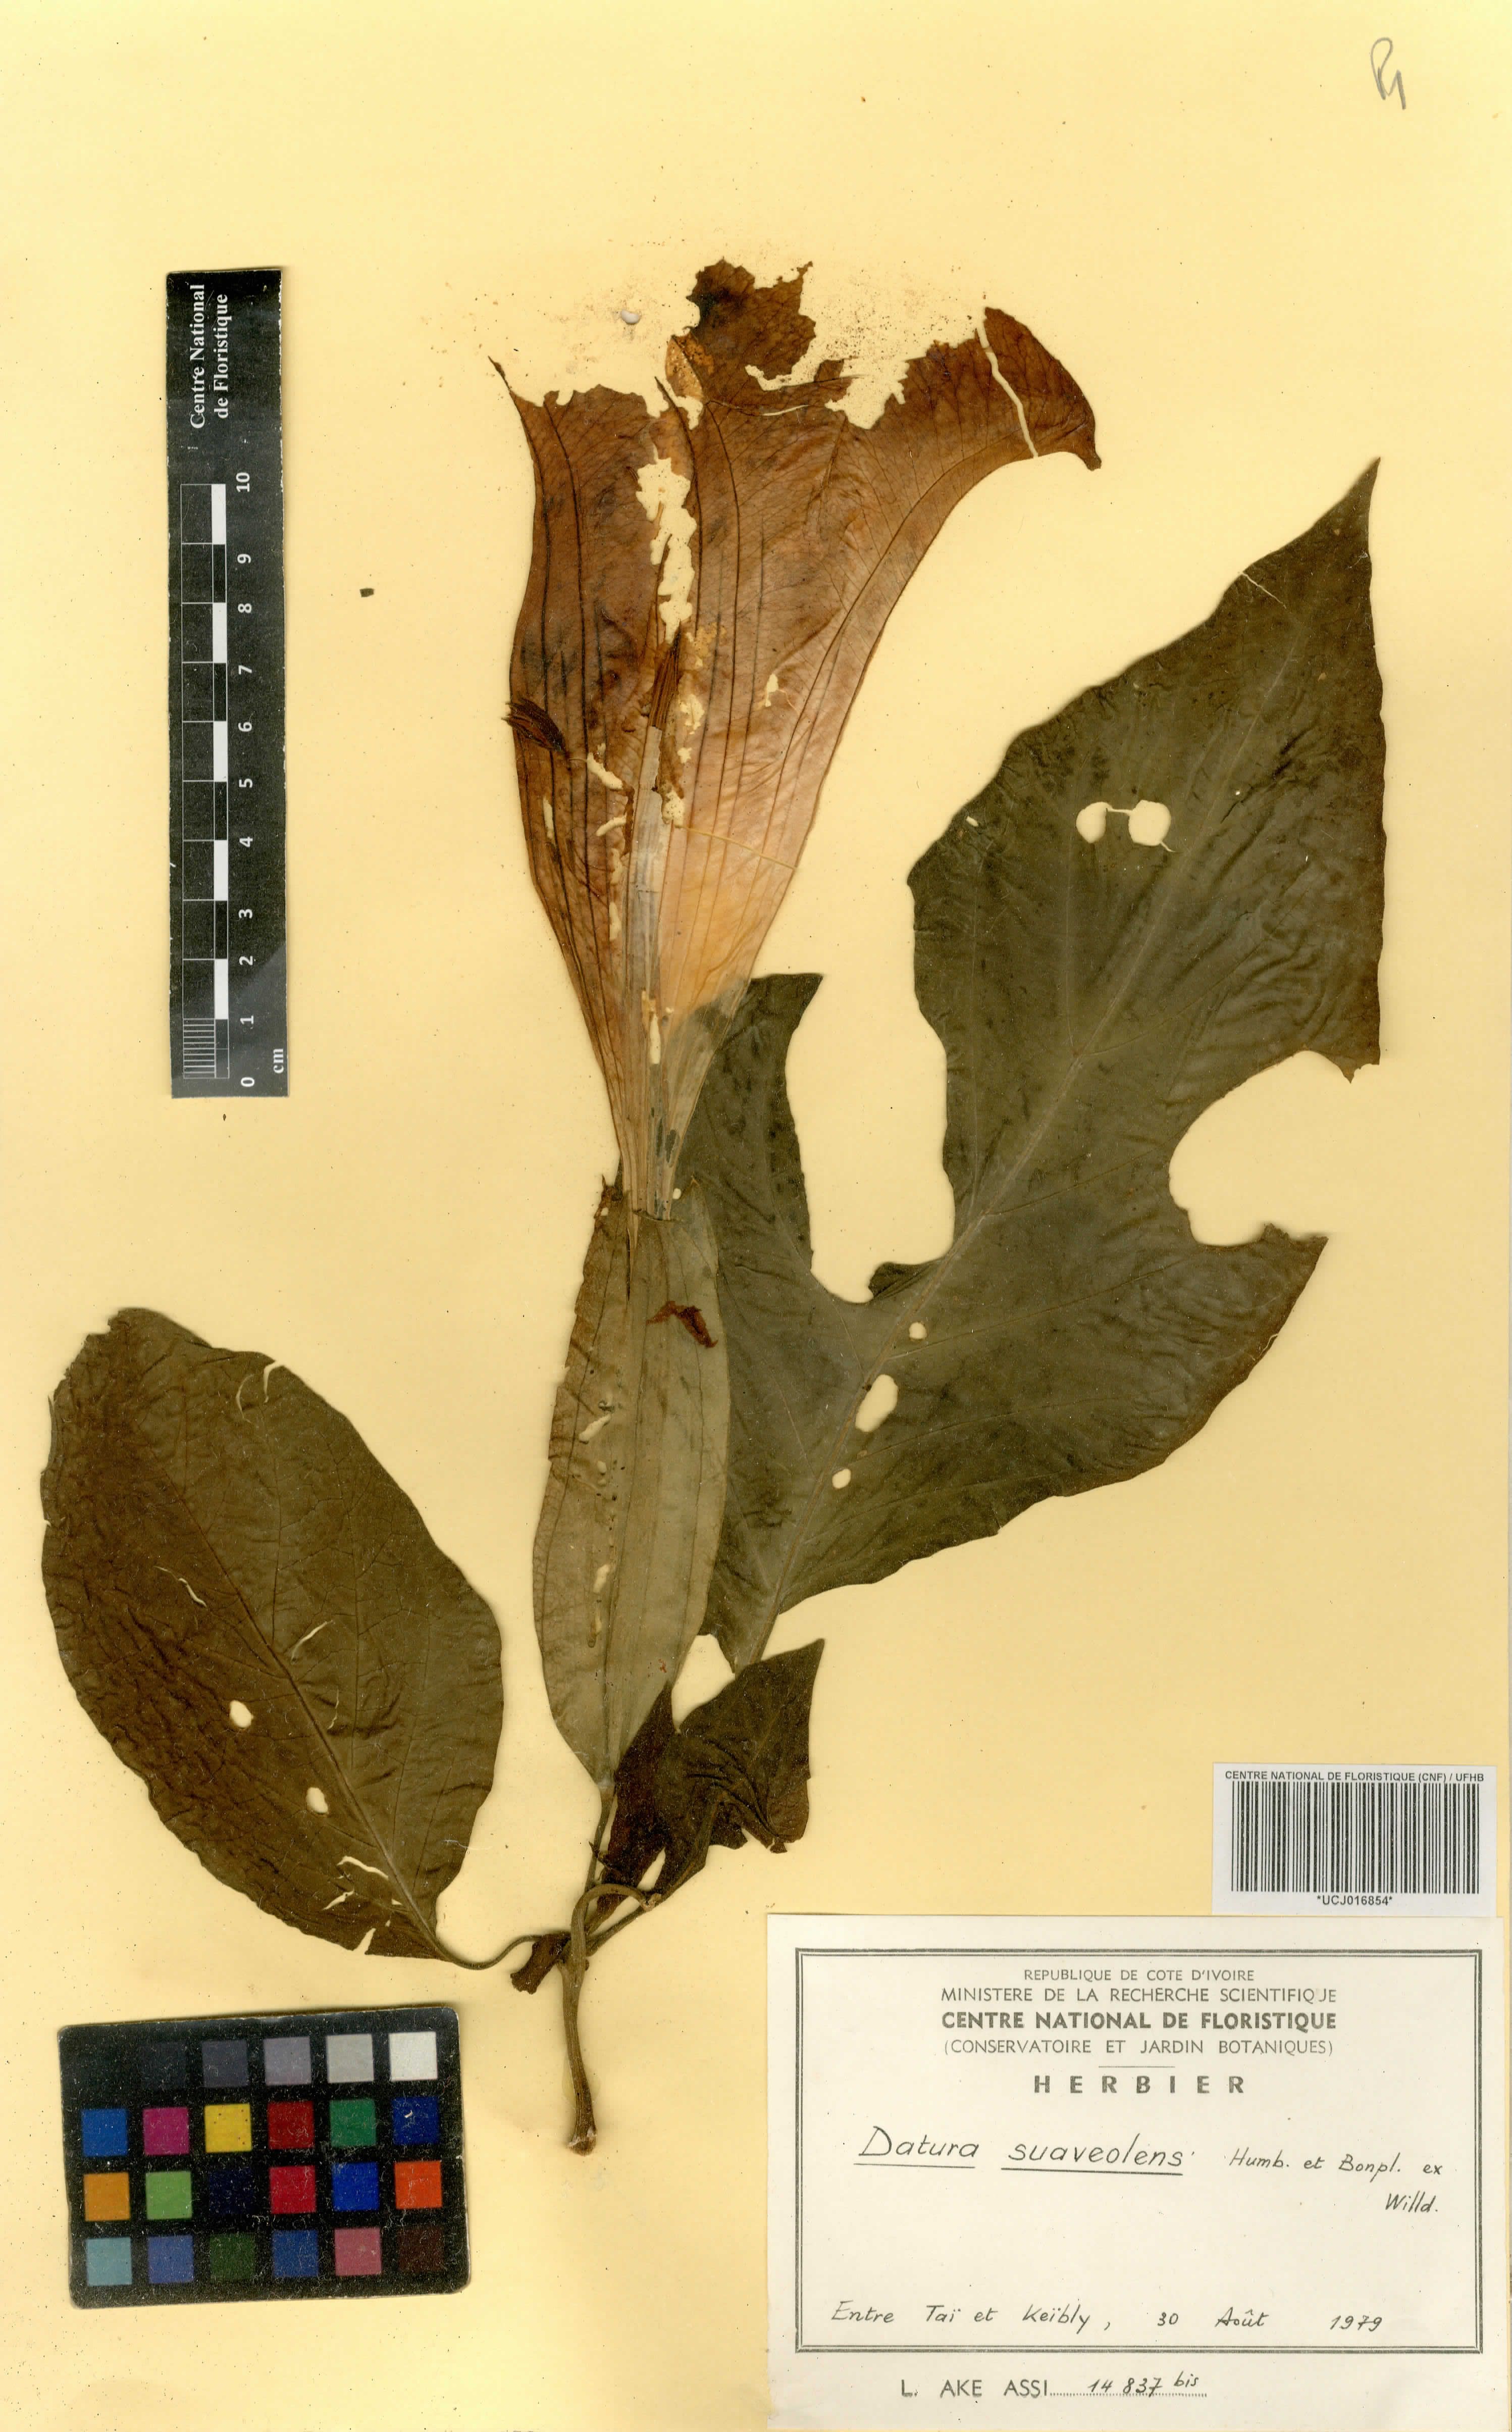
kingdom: Plantae
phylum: Tracheophyta
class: Magnoliopsida
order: Solanales
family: Solanaceae
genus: Brugmansia
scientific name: Brugmansia suaveolens
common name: Angel's tears
